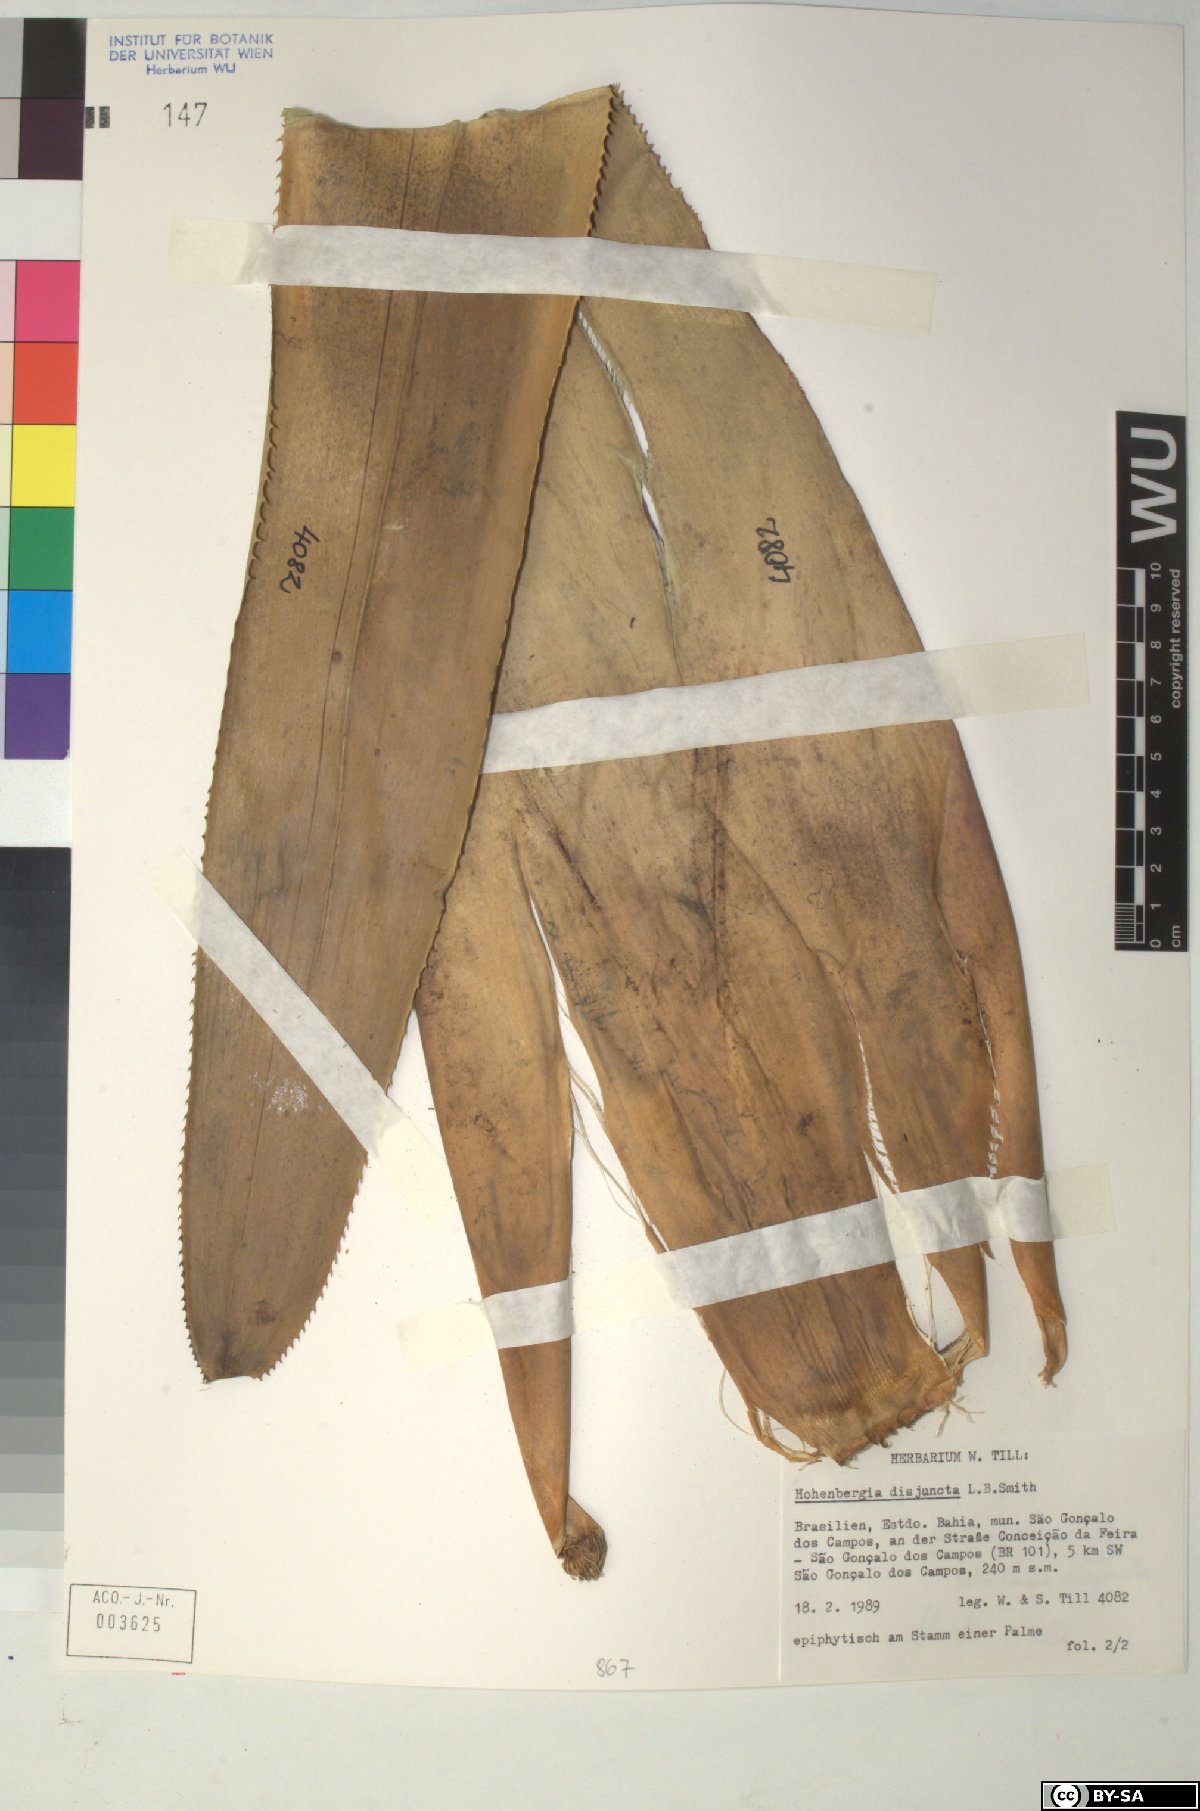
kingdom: Plantae
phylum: Tracheophyta
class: Liliopsida
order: Poales
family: Bromeliaceae
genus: Hohenbergia
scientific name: Hohenbergia
